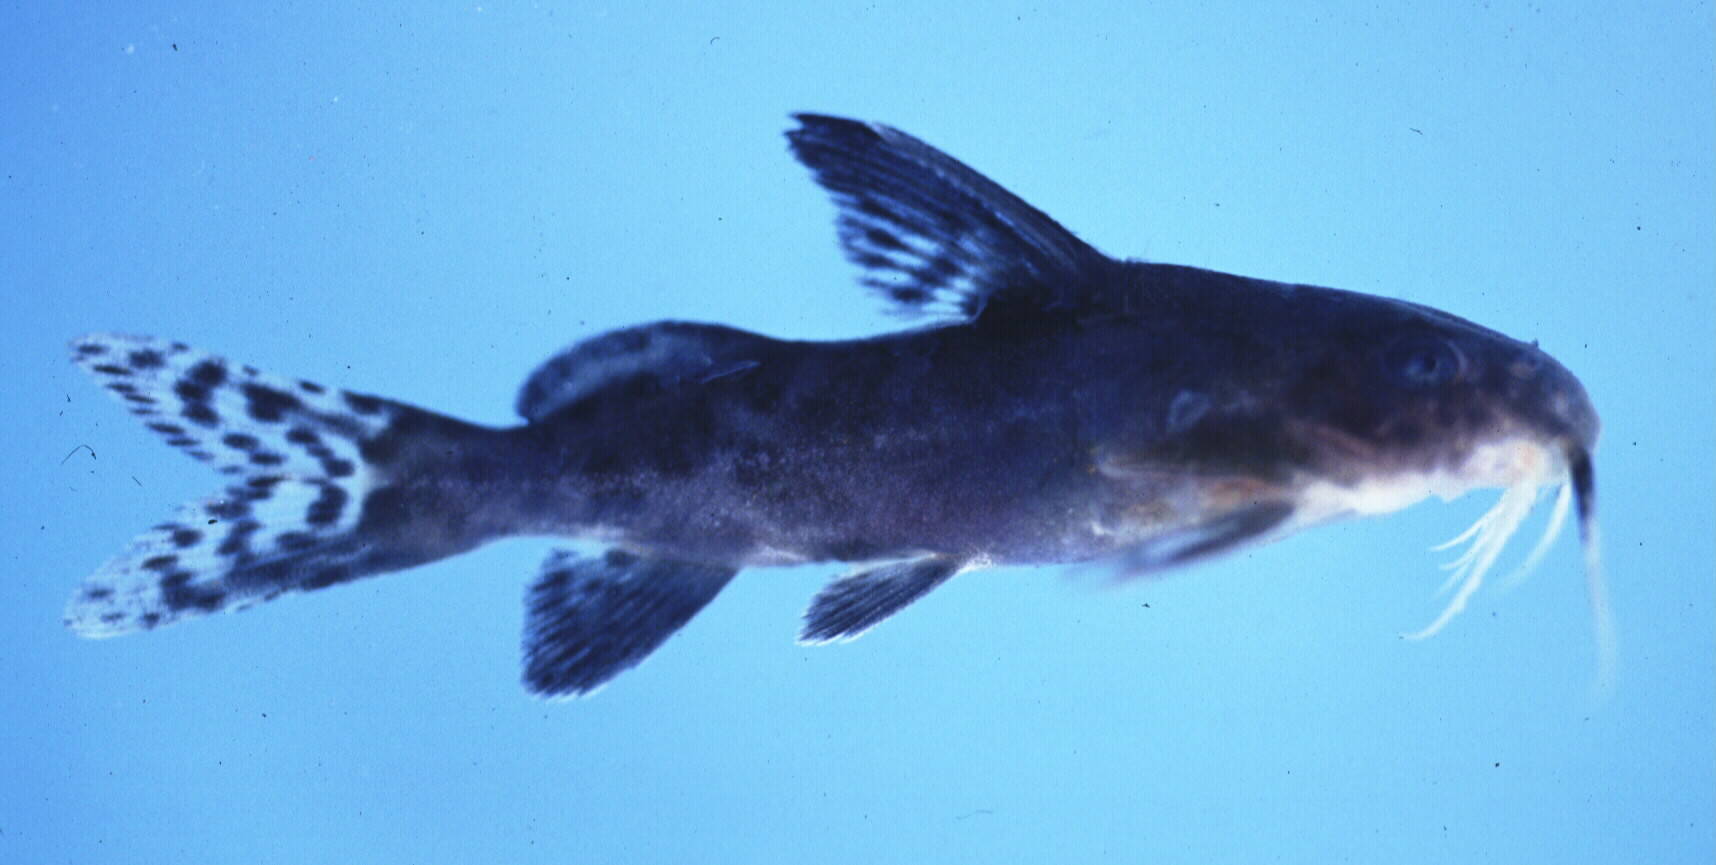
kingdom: Animalia
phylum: Chordata
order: Siluriformes
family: Mochokidae
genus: Synodontis
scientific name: Synodontis zambezensis
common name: Brown squeaker
